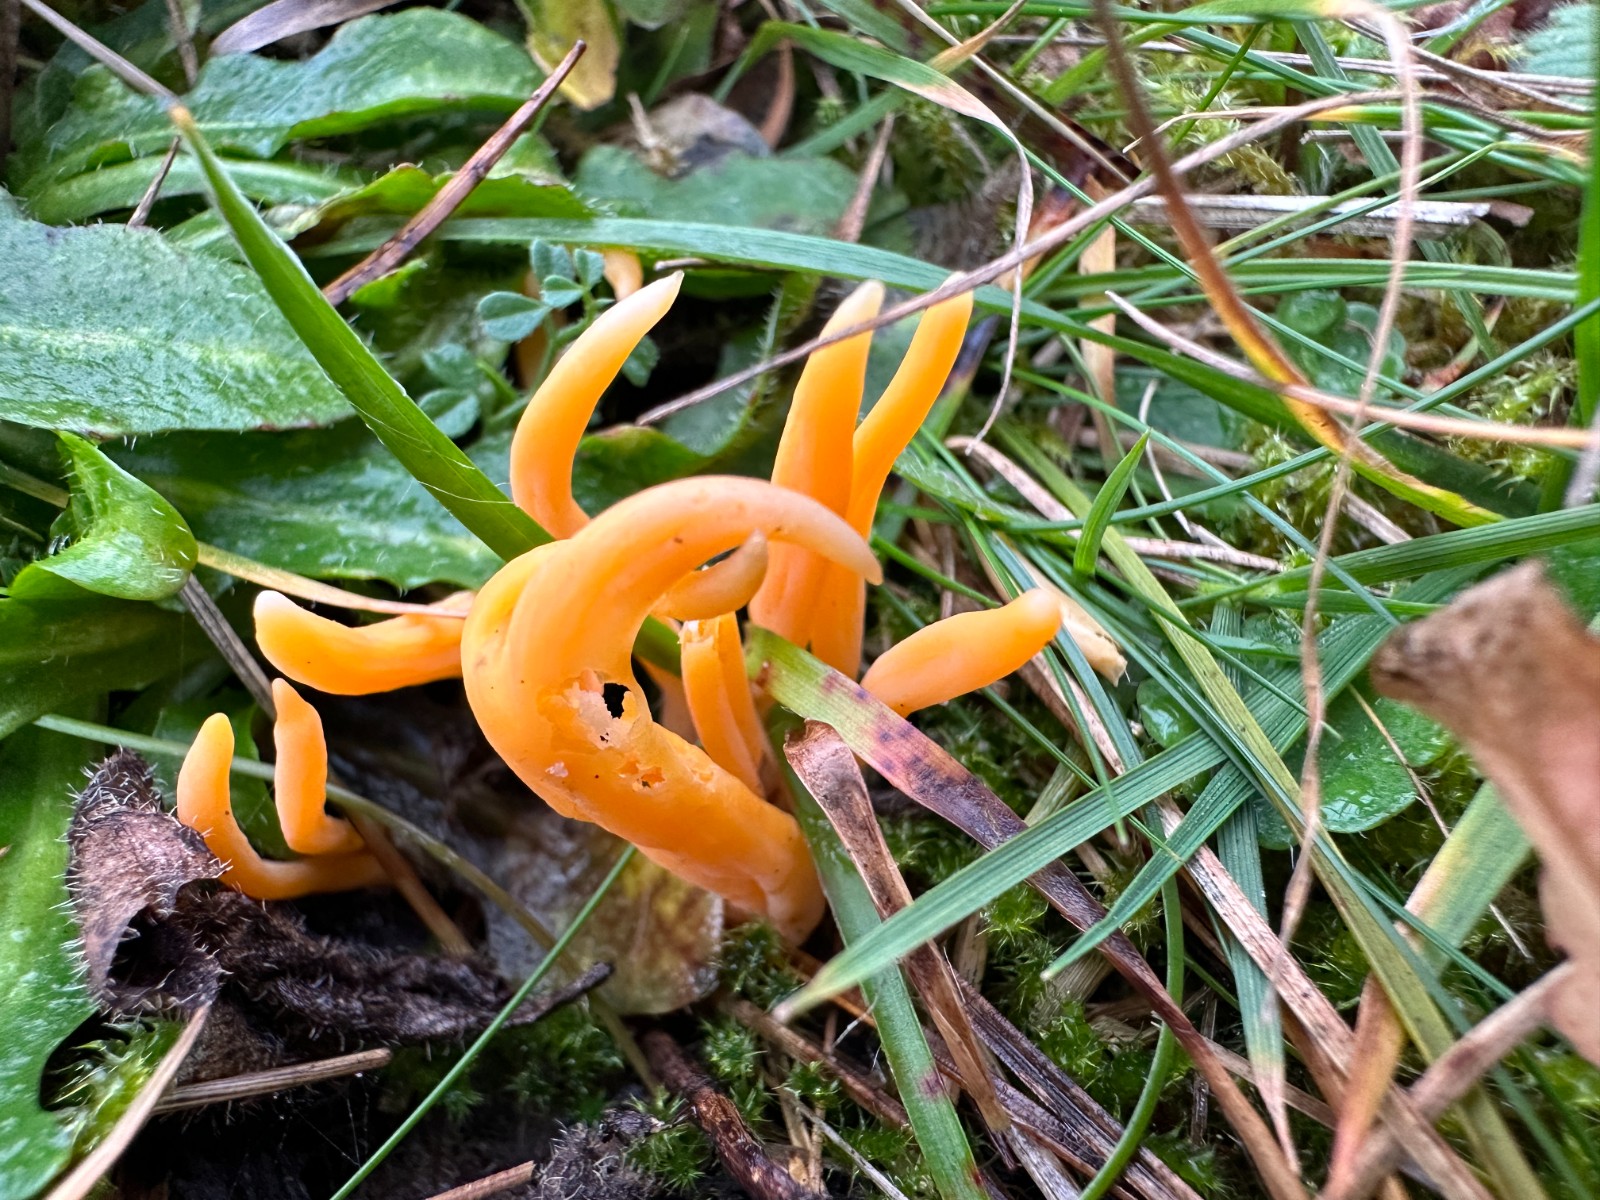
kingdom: Fungi
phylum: Basidiomycota
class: Agaricomycetes
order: Agaricales
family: Clavariaceae
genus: Clavulinopsis
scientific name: Clavulinopsis luteoalba
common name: abrikos-køllesvamp
